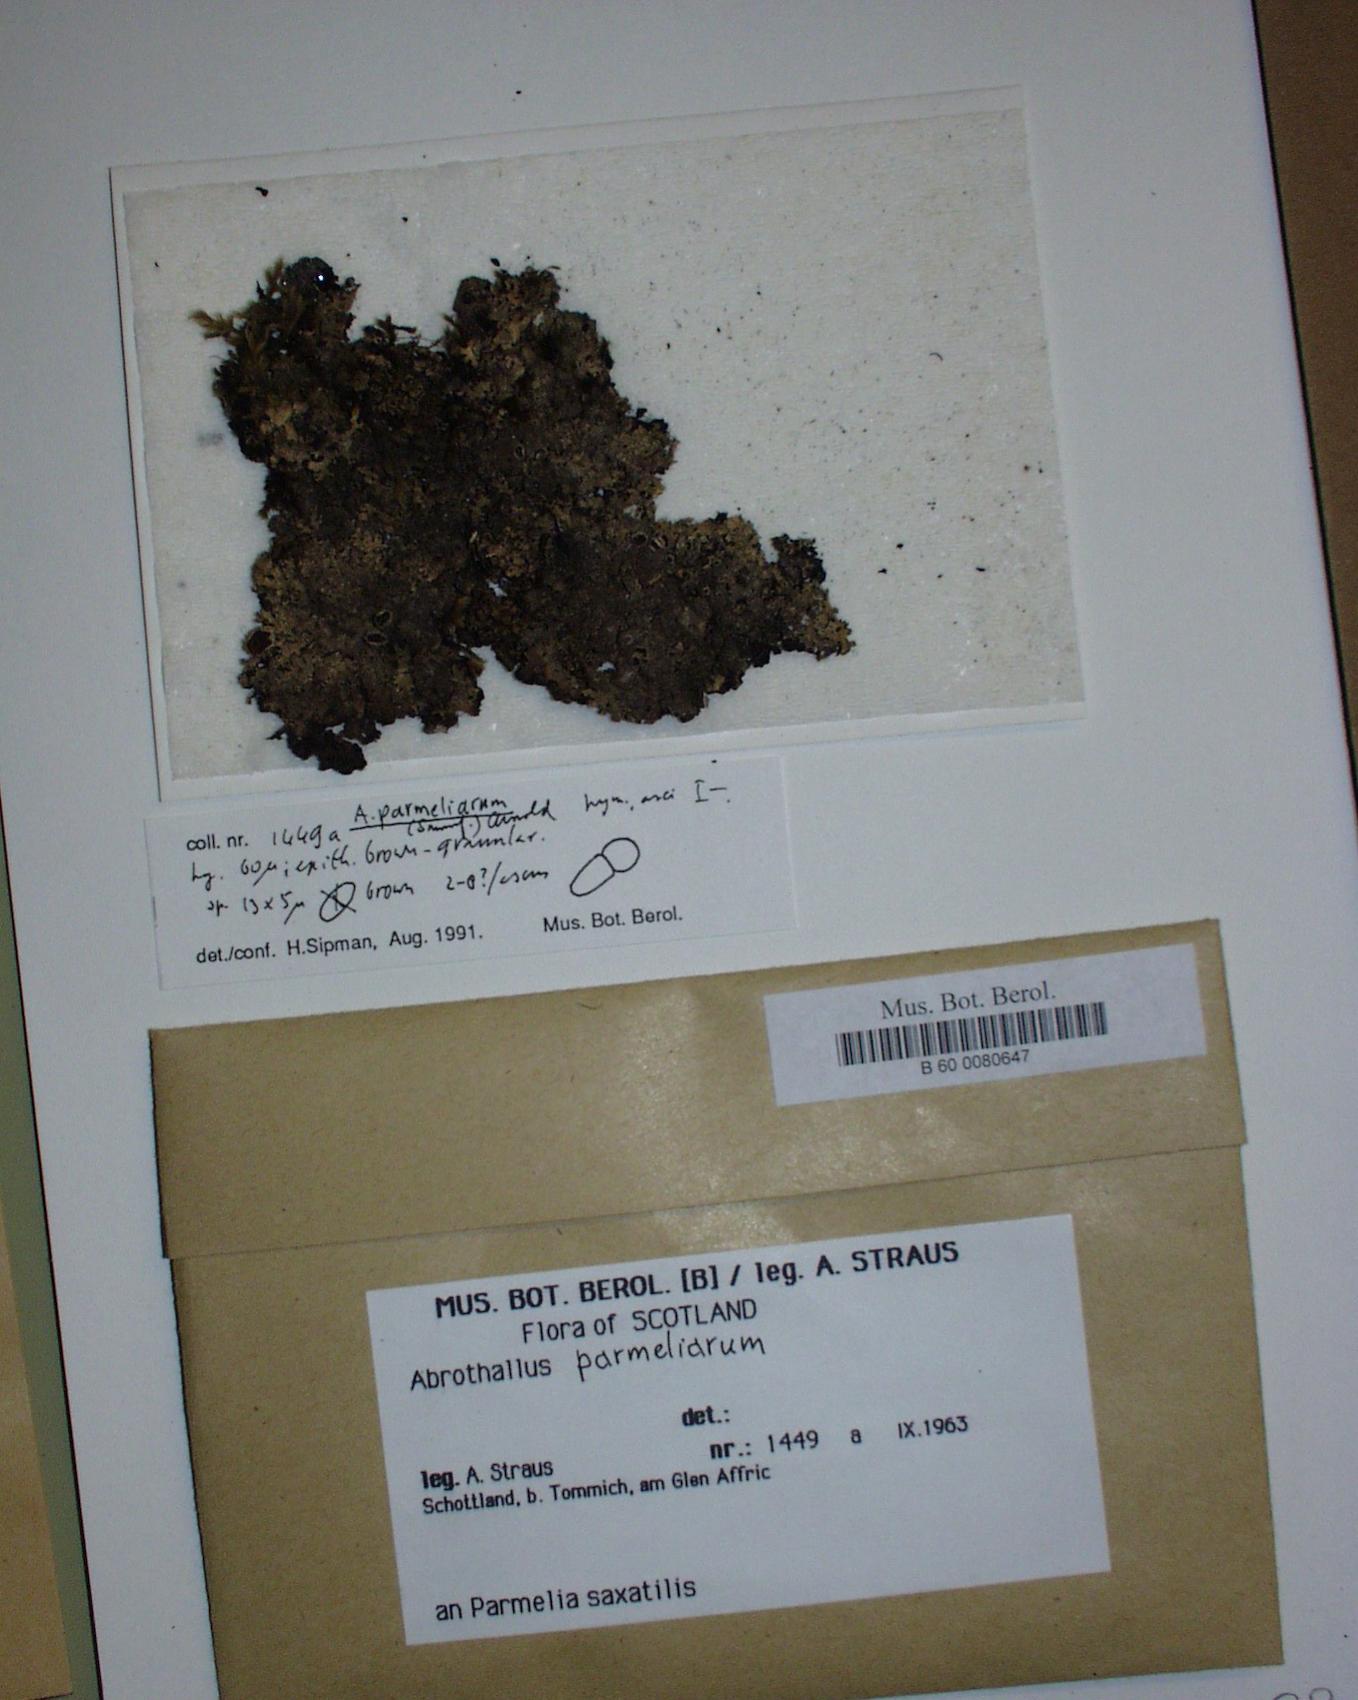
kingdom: Fungi
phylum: Ascomycota
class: Dothideomycetes
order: Abrothallales
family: Abrothallaceae
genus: Abrothallus
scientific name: Abrothallus parmeliarum
